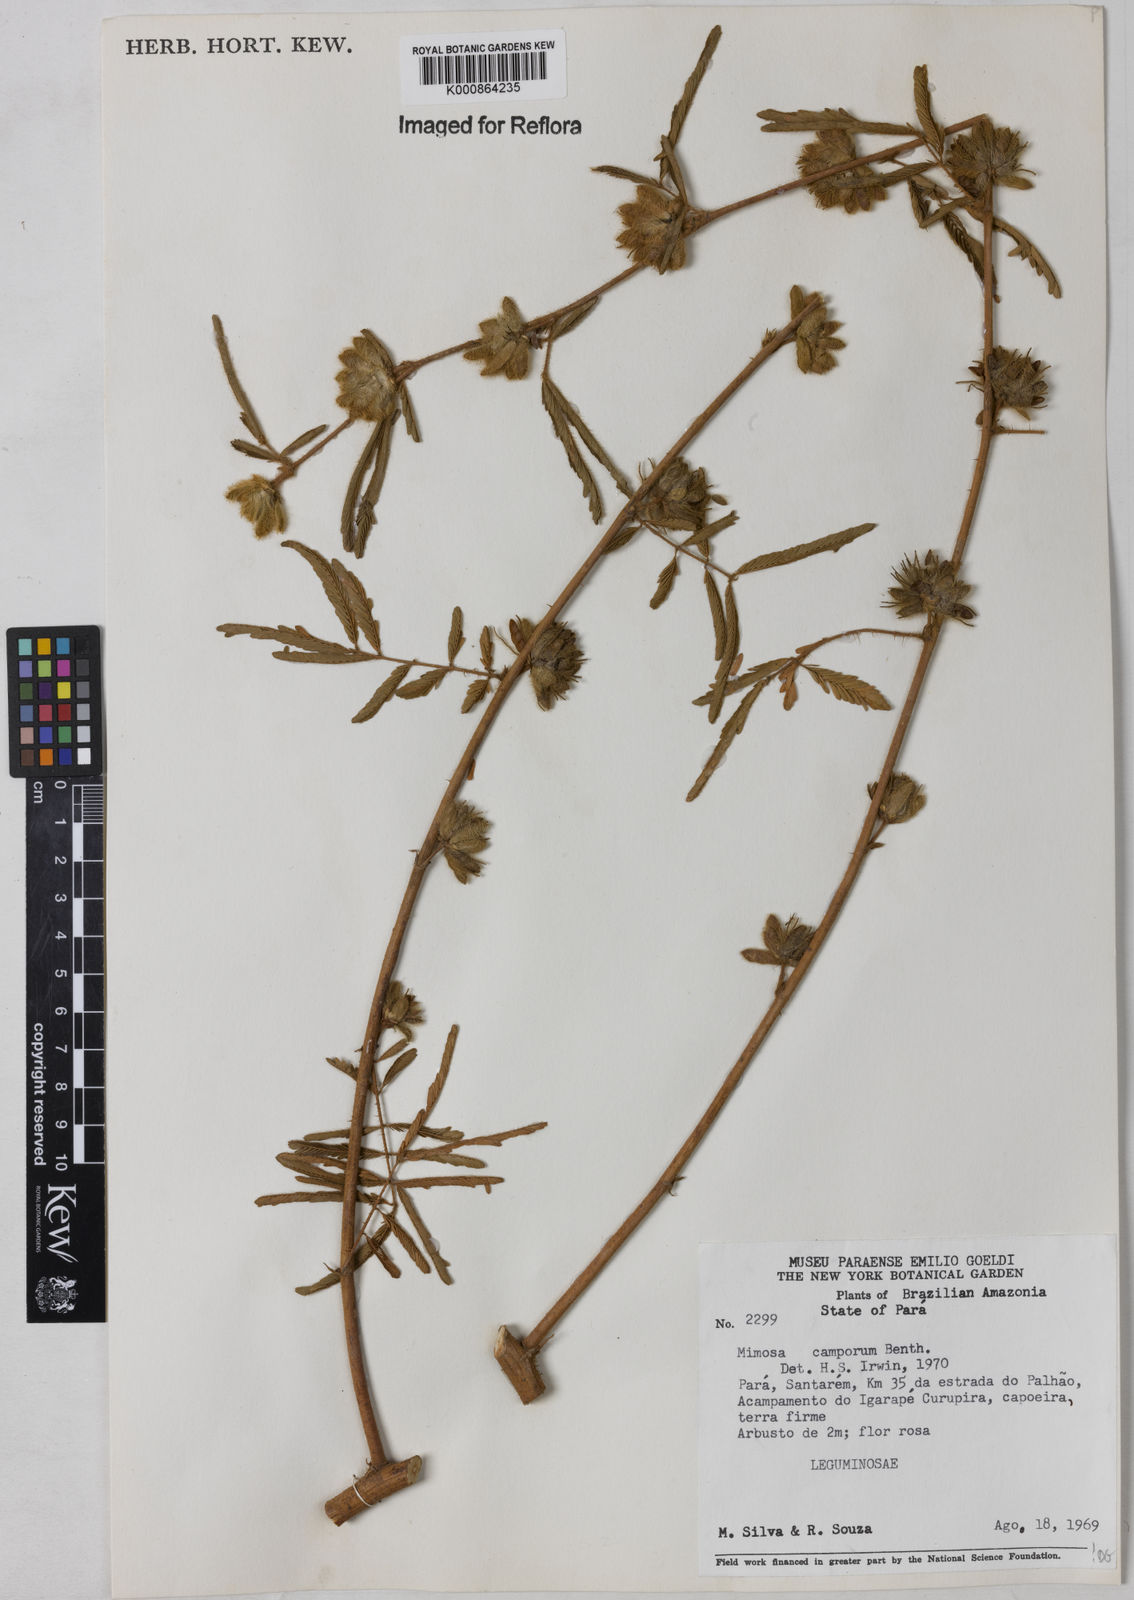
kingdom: Plantae
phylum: Tracheophyta
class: Magnoliopsida
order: Fabales
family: Fabaceae
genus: Mimosa
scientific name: Mimosa camporum
